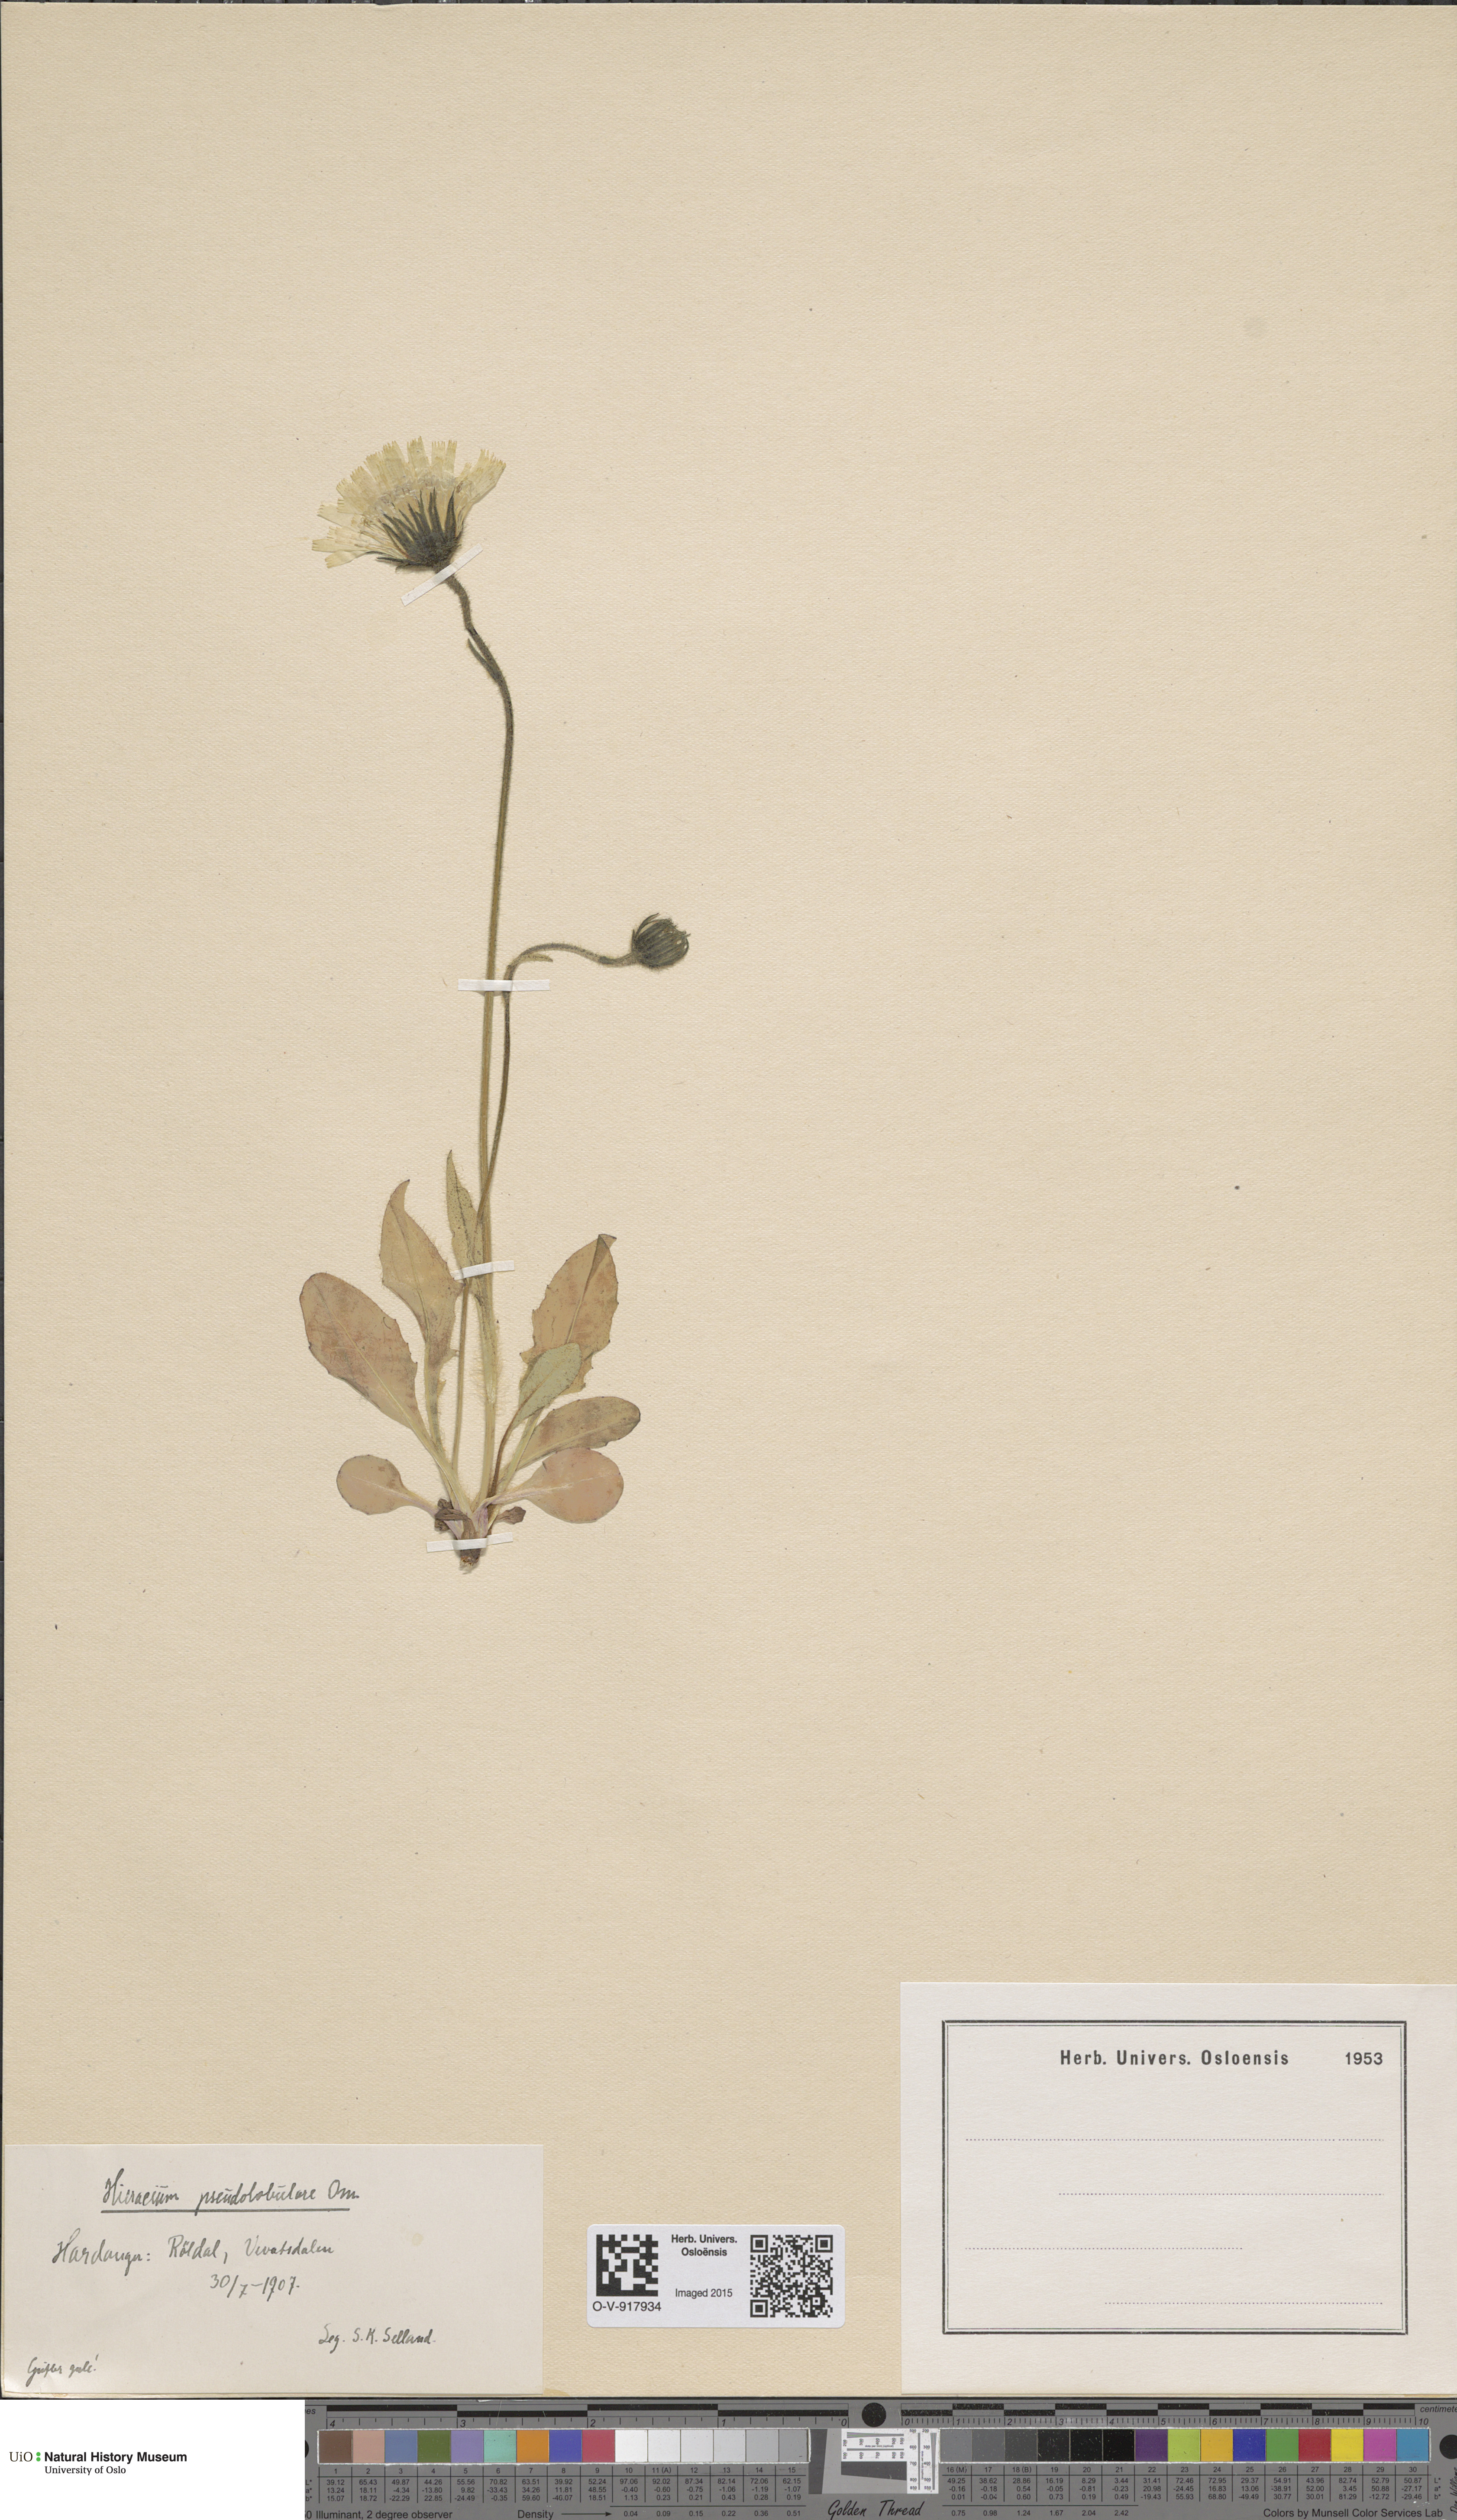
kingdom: Plantae
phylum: Tracheophyta
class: Magnoliopsida
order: Asterales
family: Asteraceae
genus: Hieracium
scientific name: Hieracium
